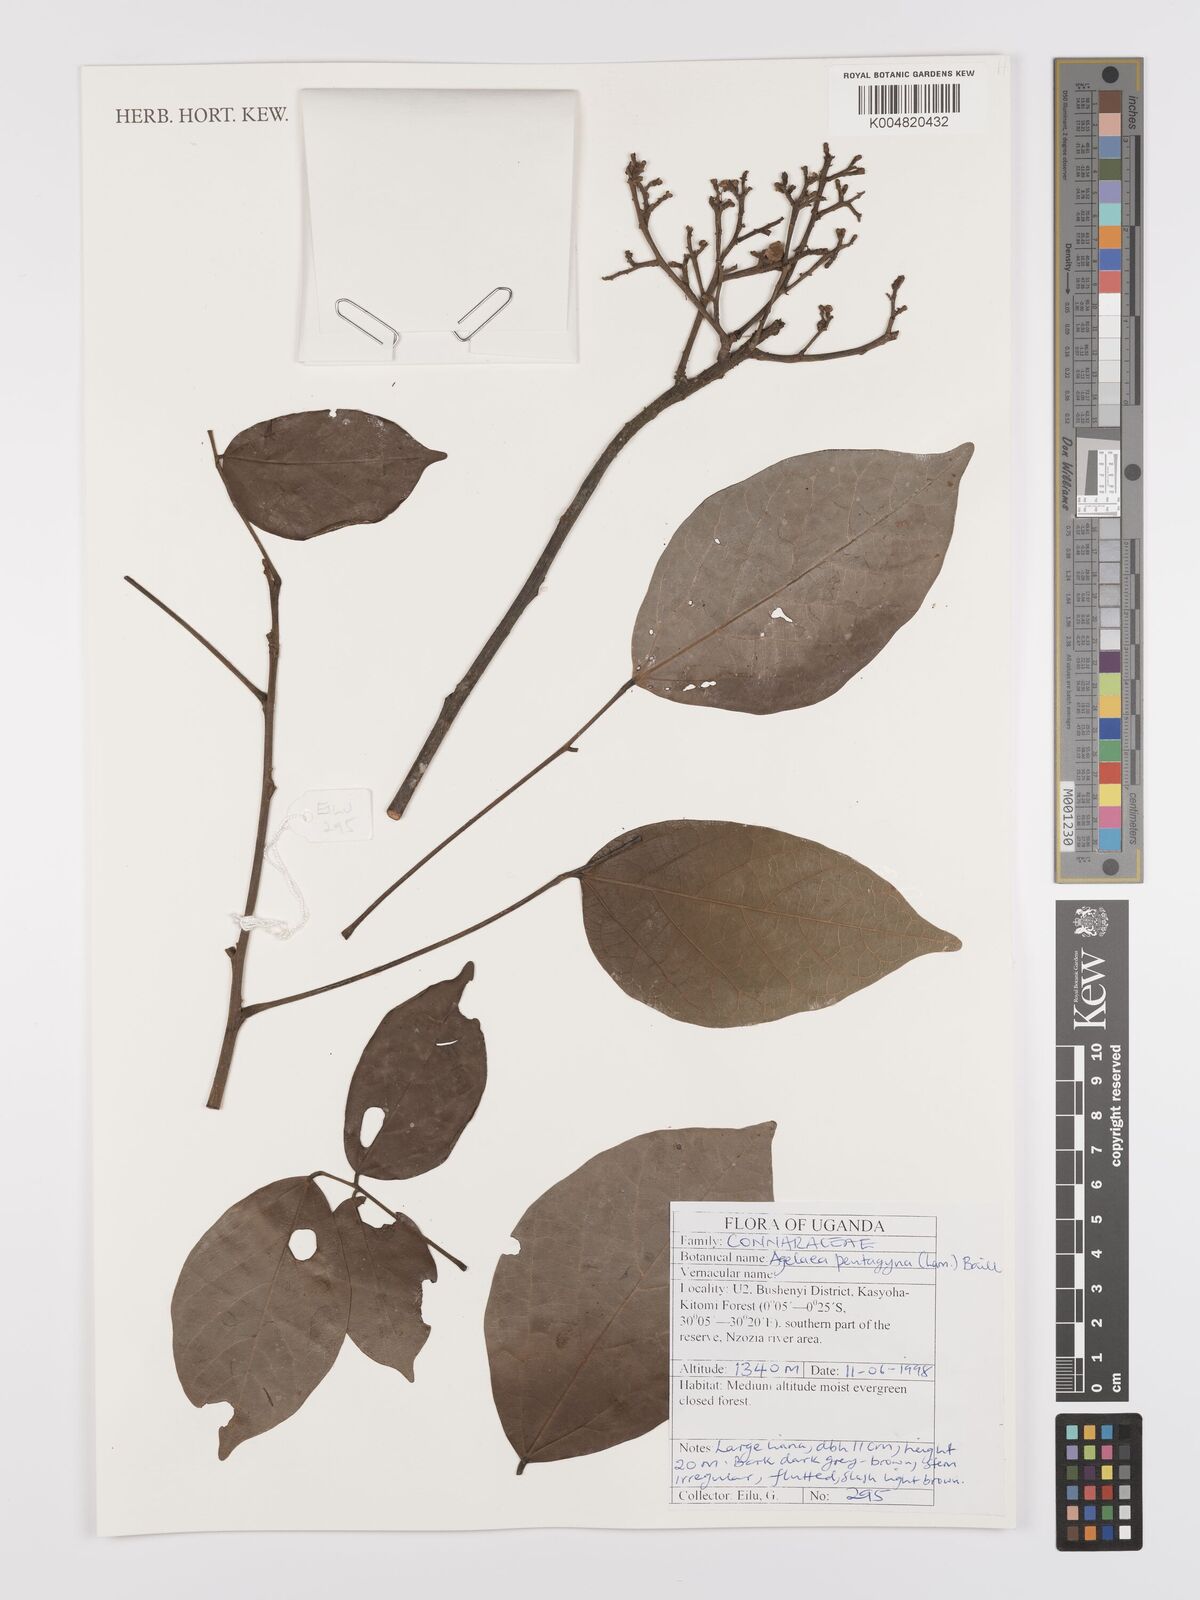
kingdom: Plantae
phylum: Tracheophyta
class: Magnoliopsida
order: Oxalidales
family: Connaraceae
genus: Agelaea
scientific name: Agelaea pentagyna
